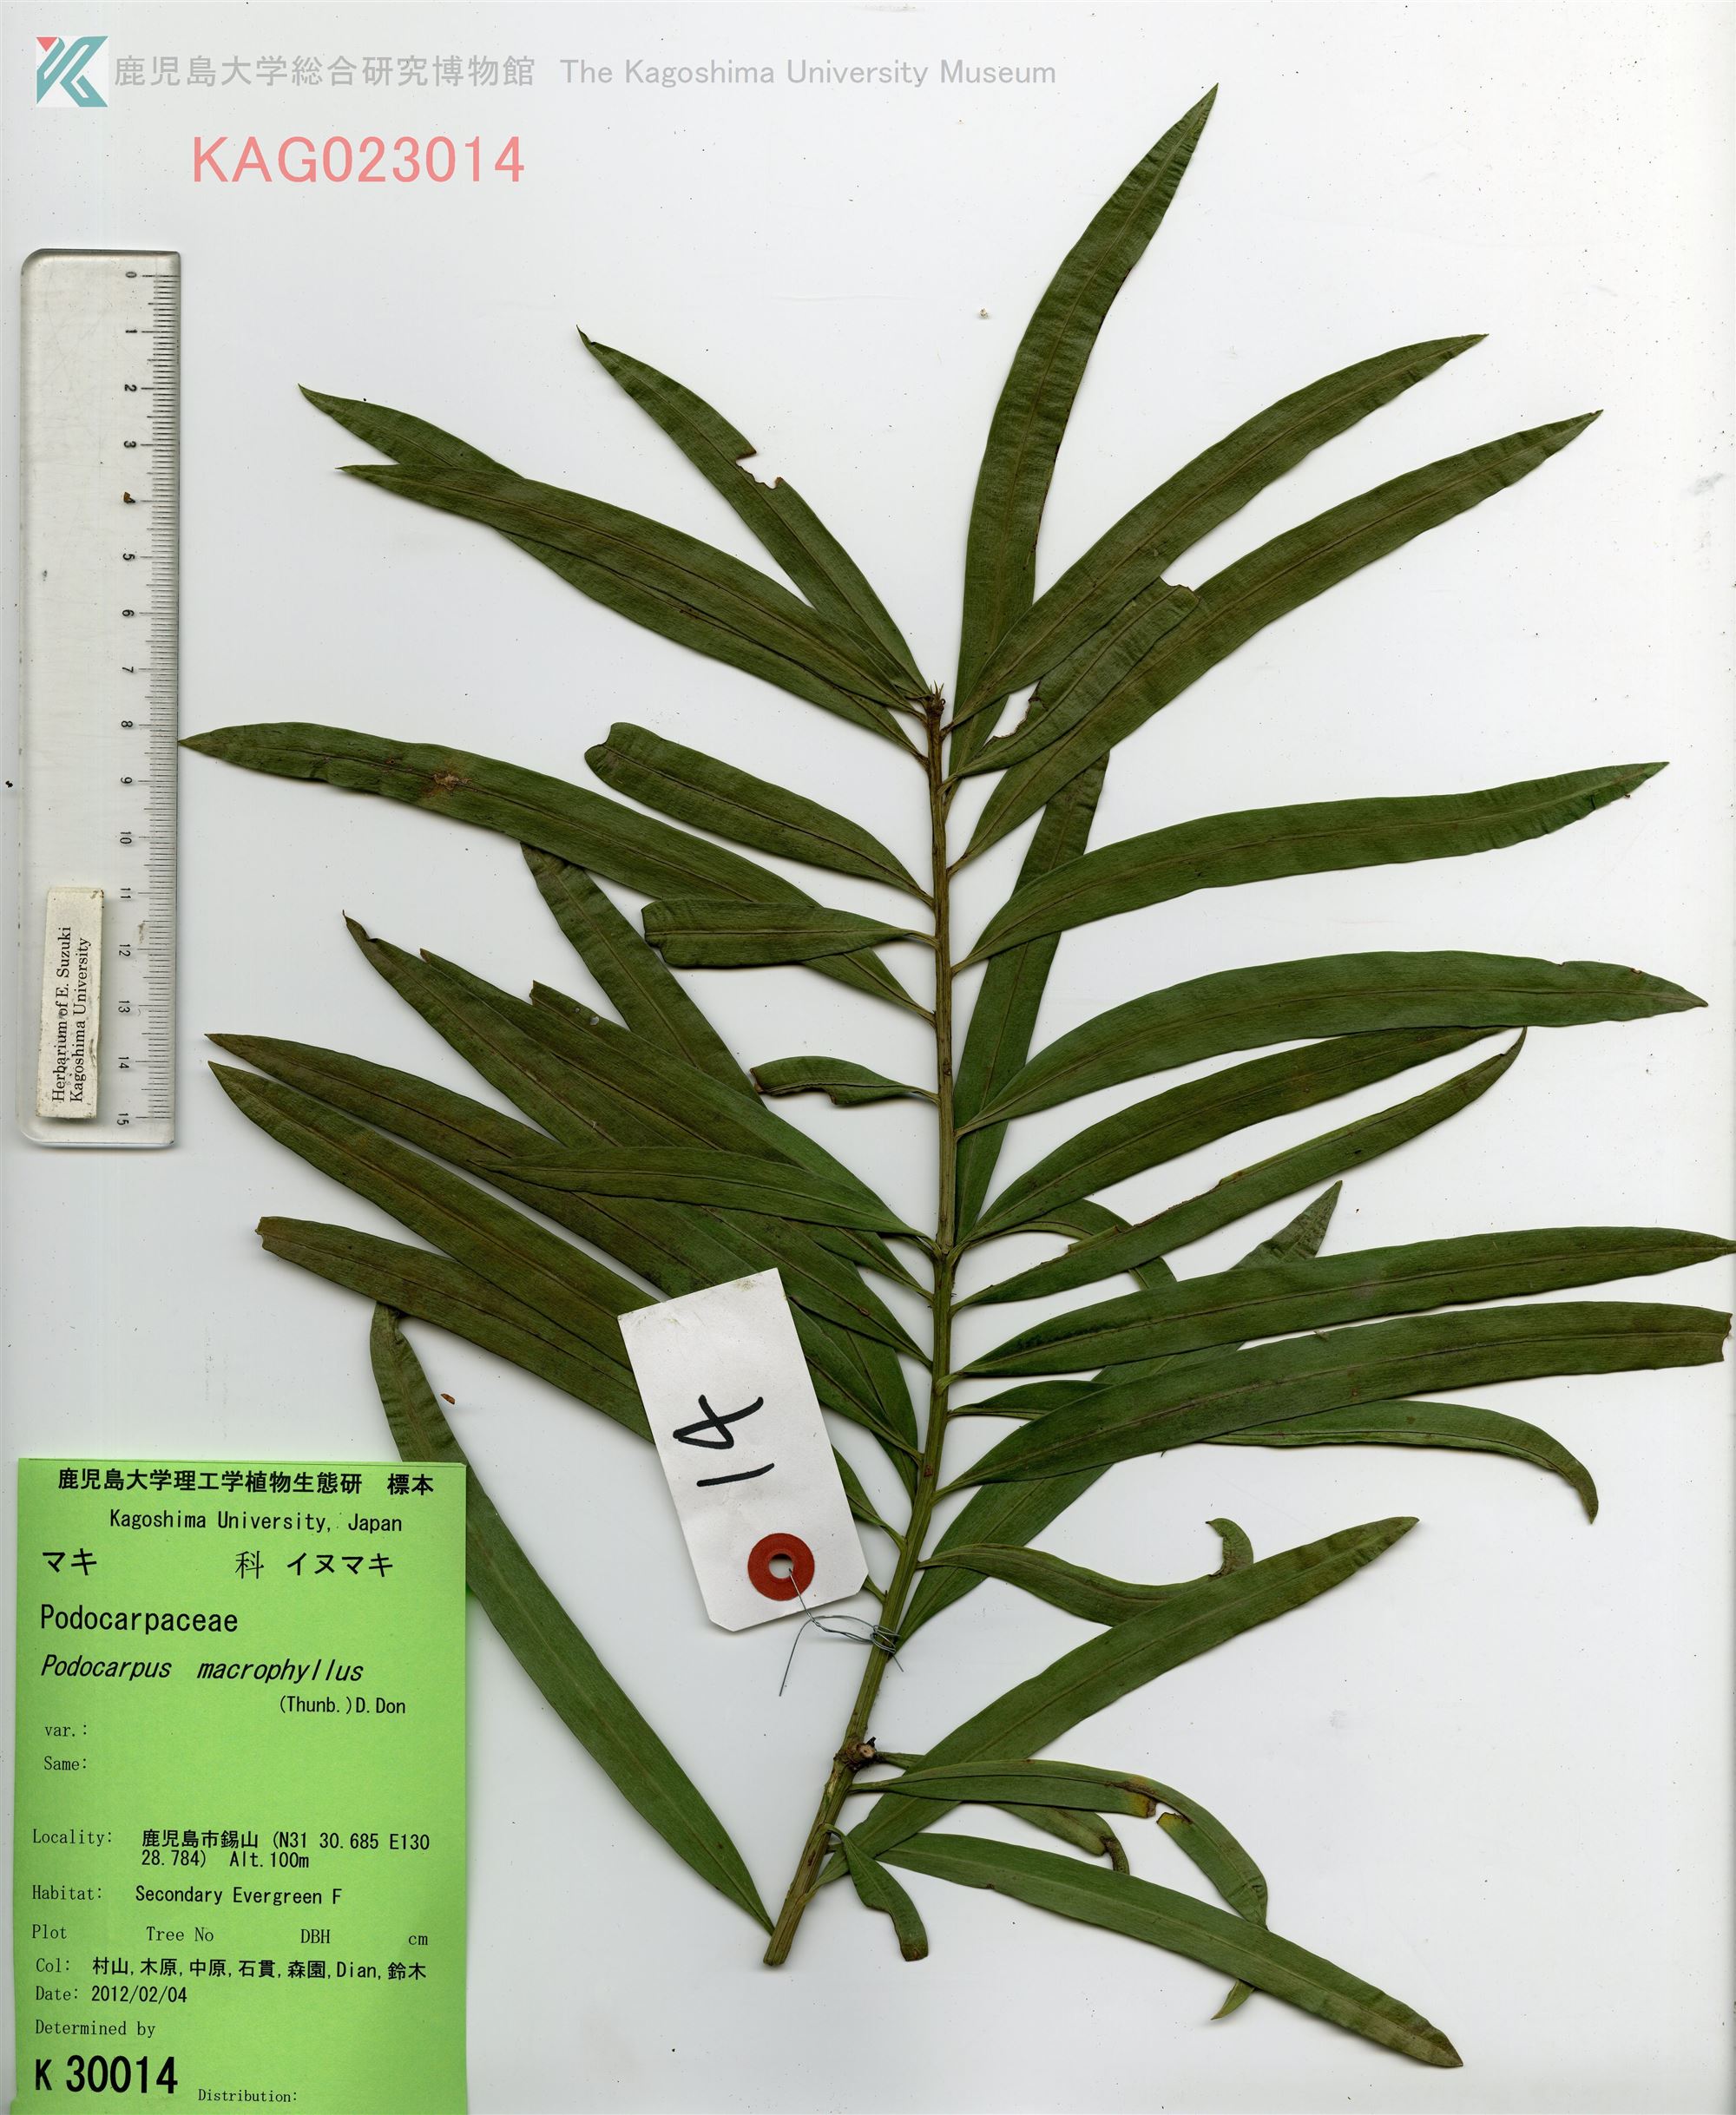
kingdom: Plantae
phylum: Tracheophyta
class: Pinopsida
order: Pinales
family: Podocarpaceae
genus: Podocarpus
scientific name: Podocarpus macrophyllus
